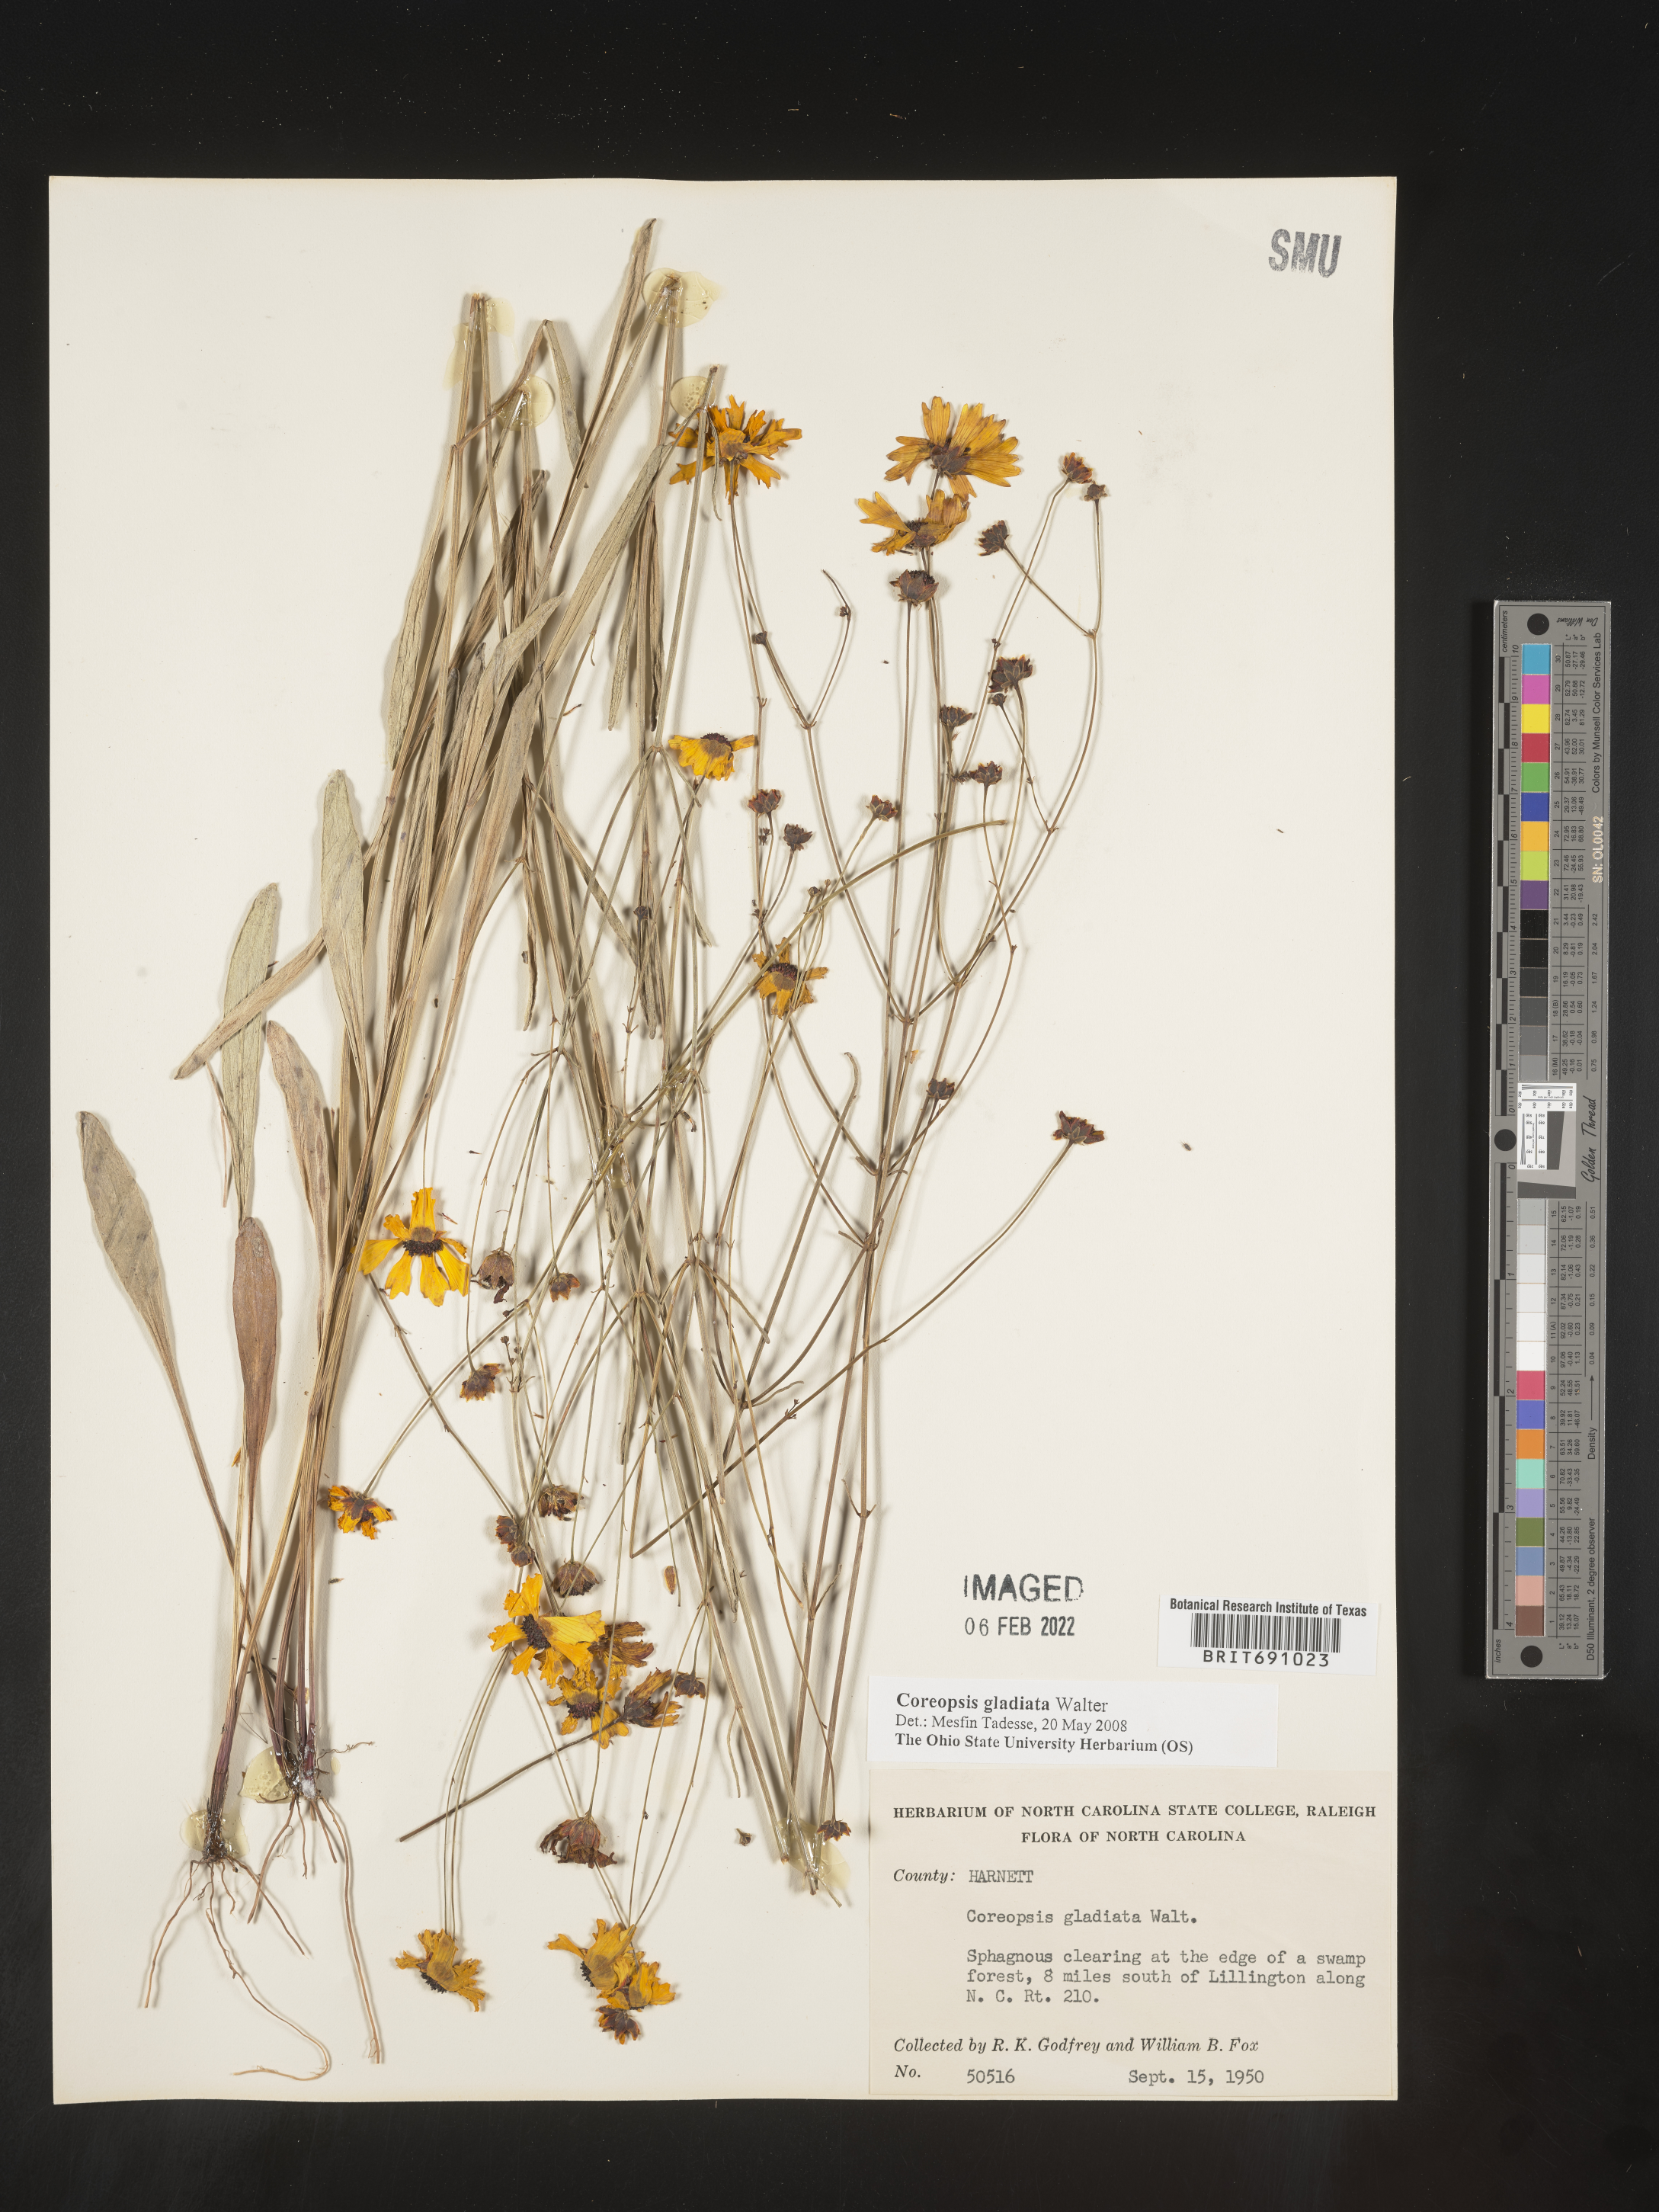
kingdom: Plantae
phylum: Tracheophyta
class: Magnoliopsida
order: Asterales
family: Asteraceae
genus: Coreopsis
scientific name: Coreopsis gladiata
